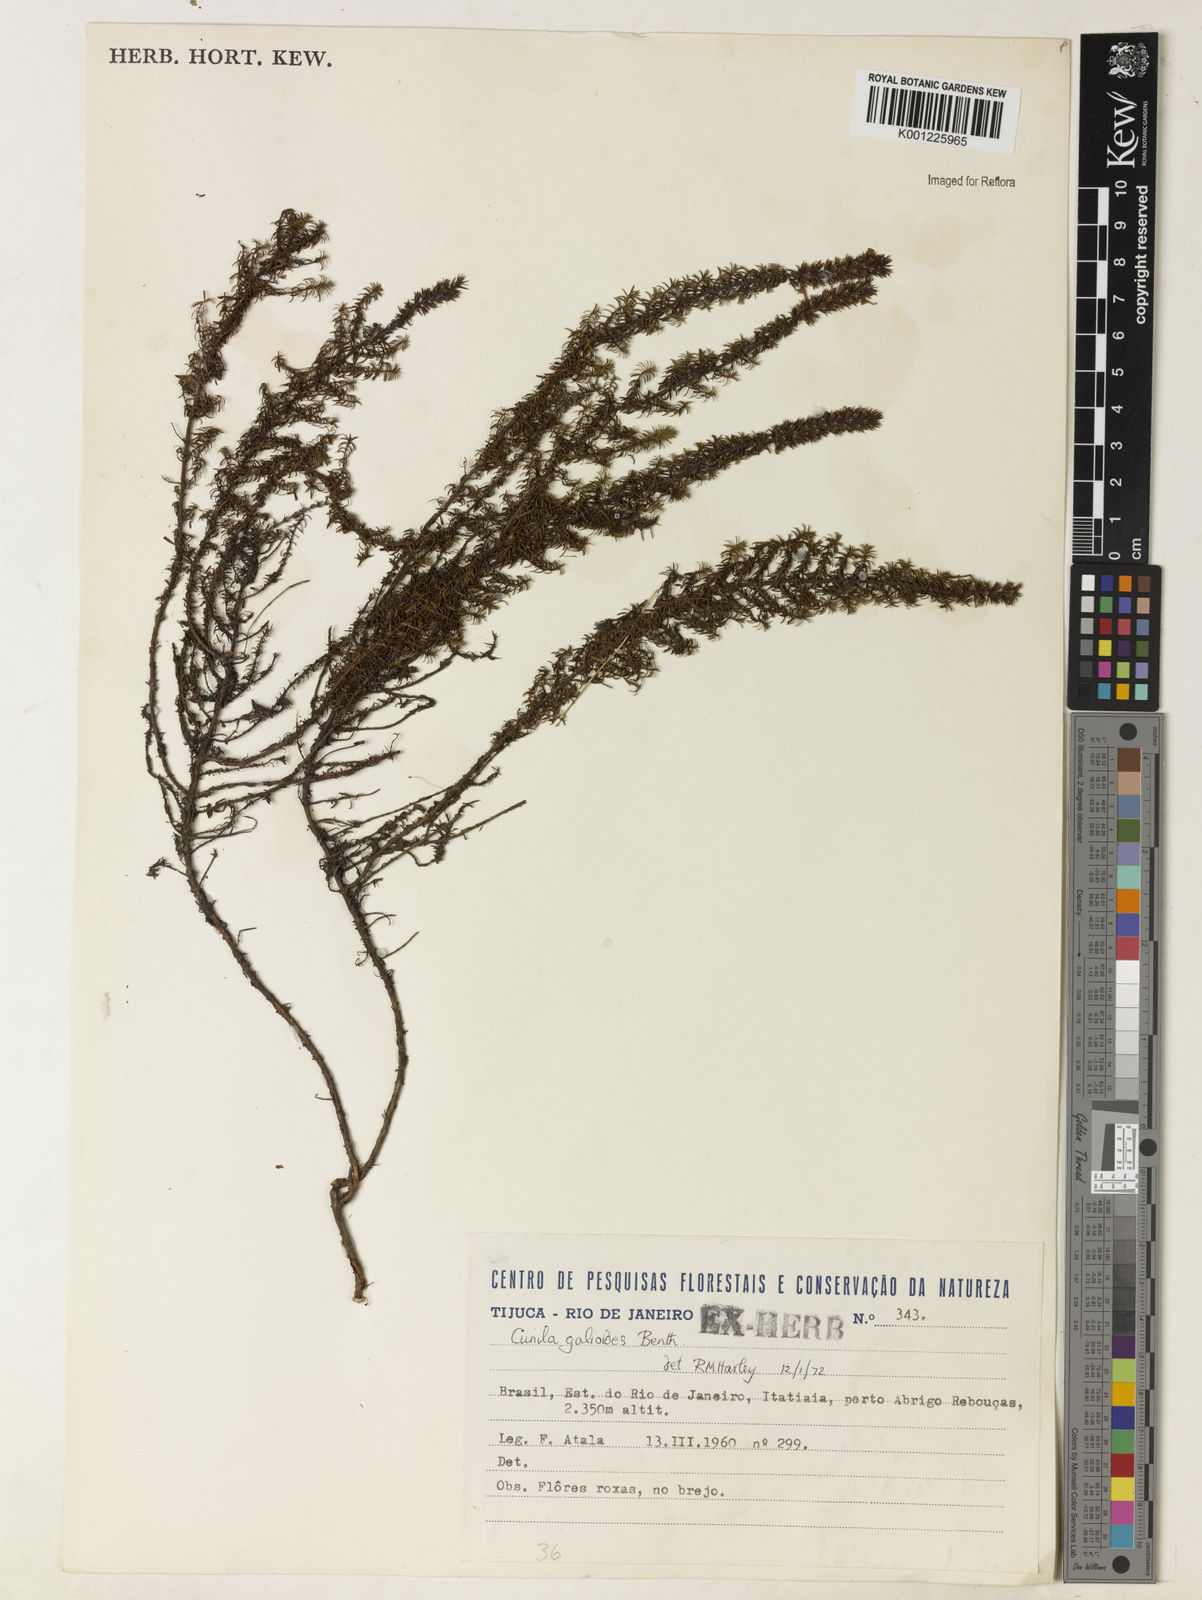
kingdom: Plantae
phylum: Tracheophyta
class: Magnoliopsida
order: Lamiales
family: Lamiaceae
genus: Cunila
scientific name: Cunila galioides
